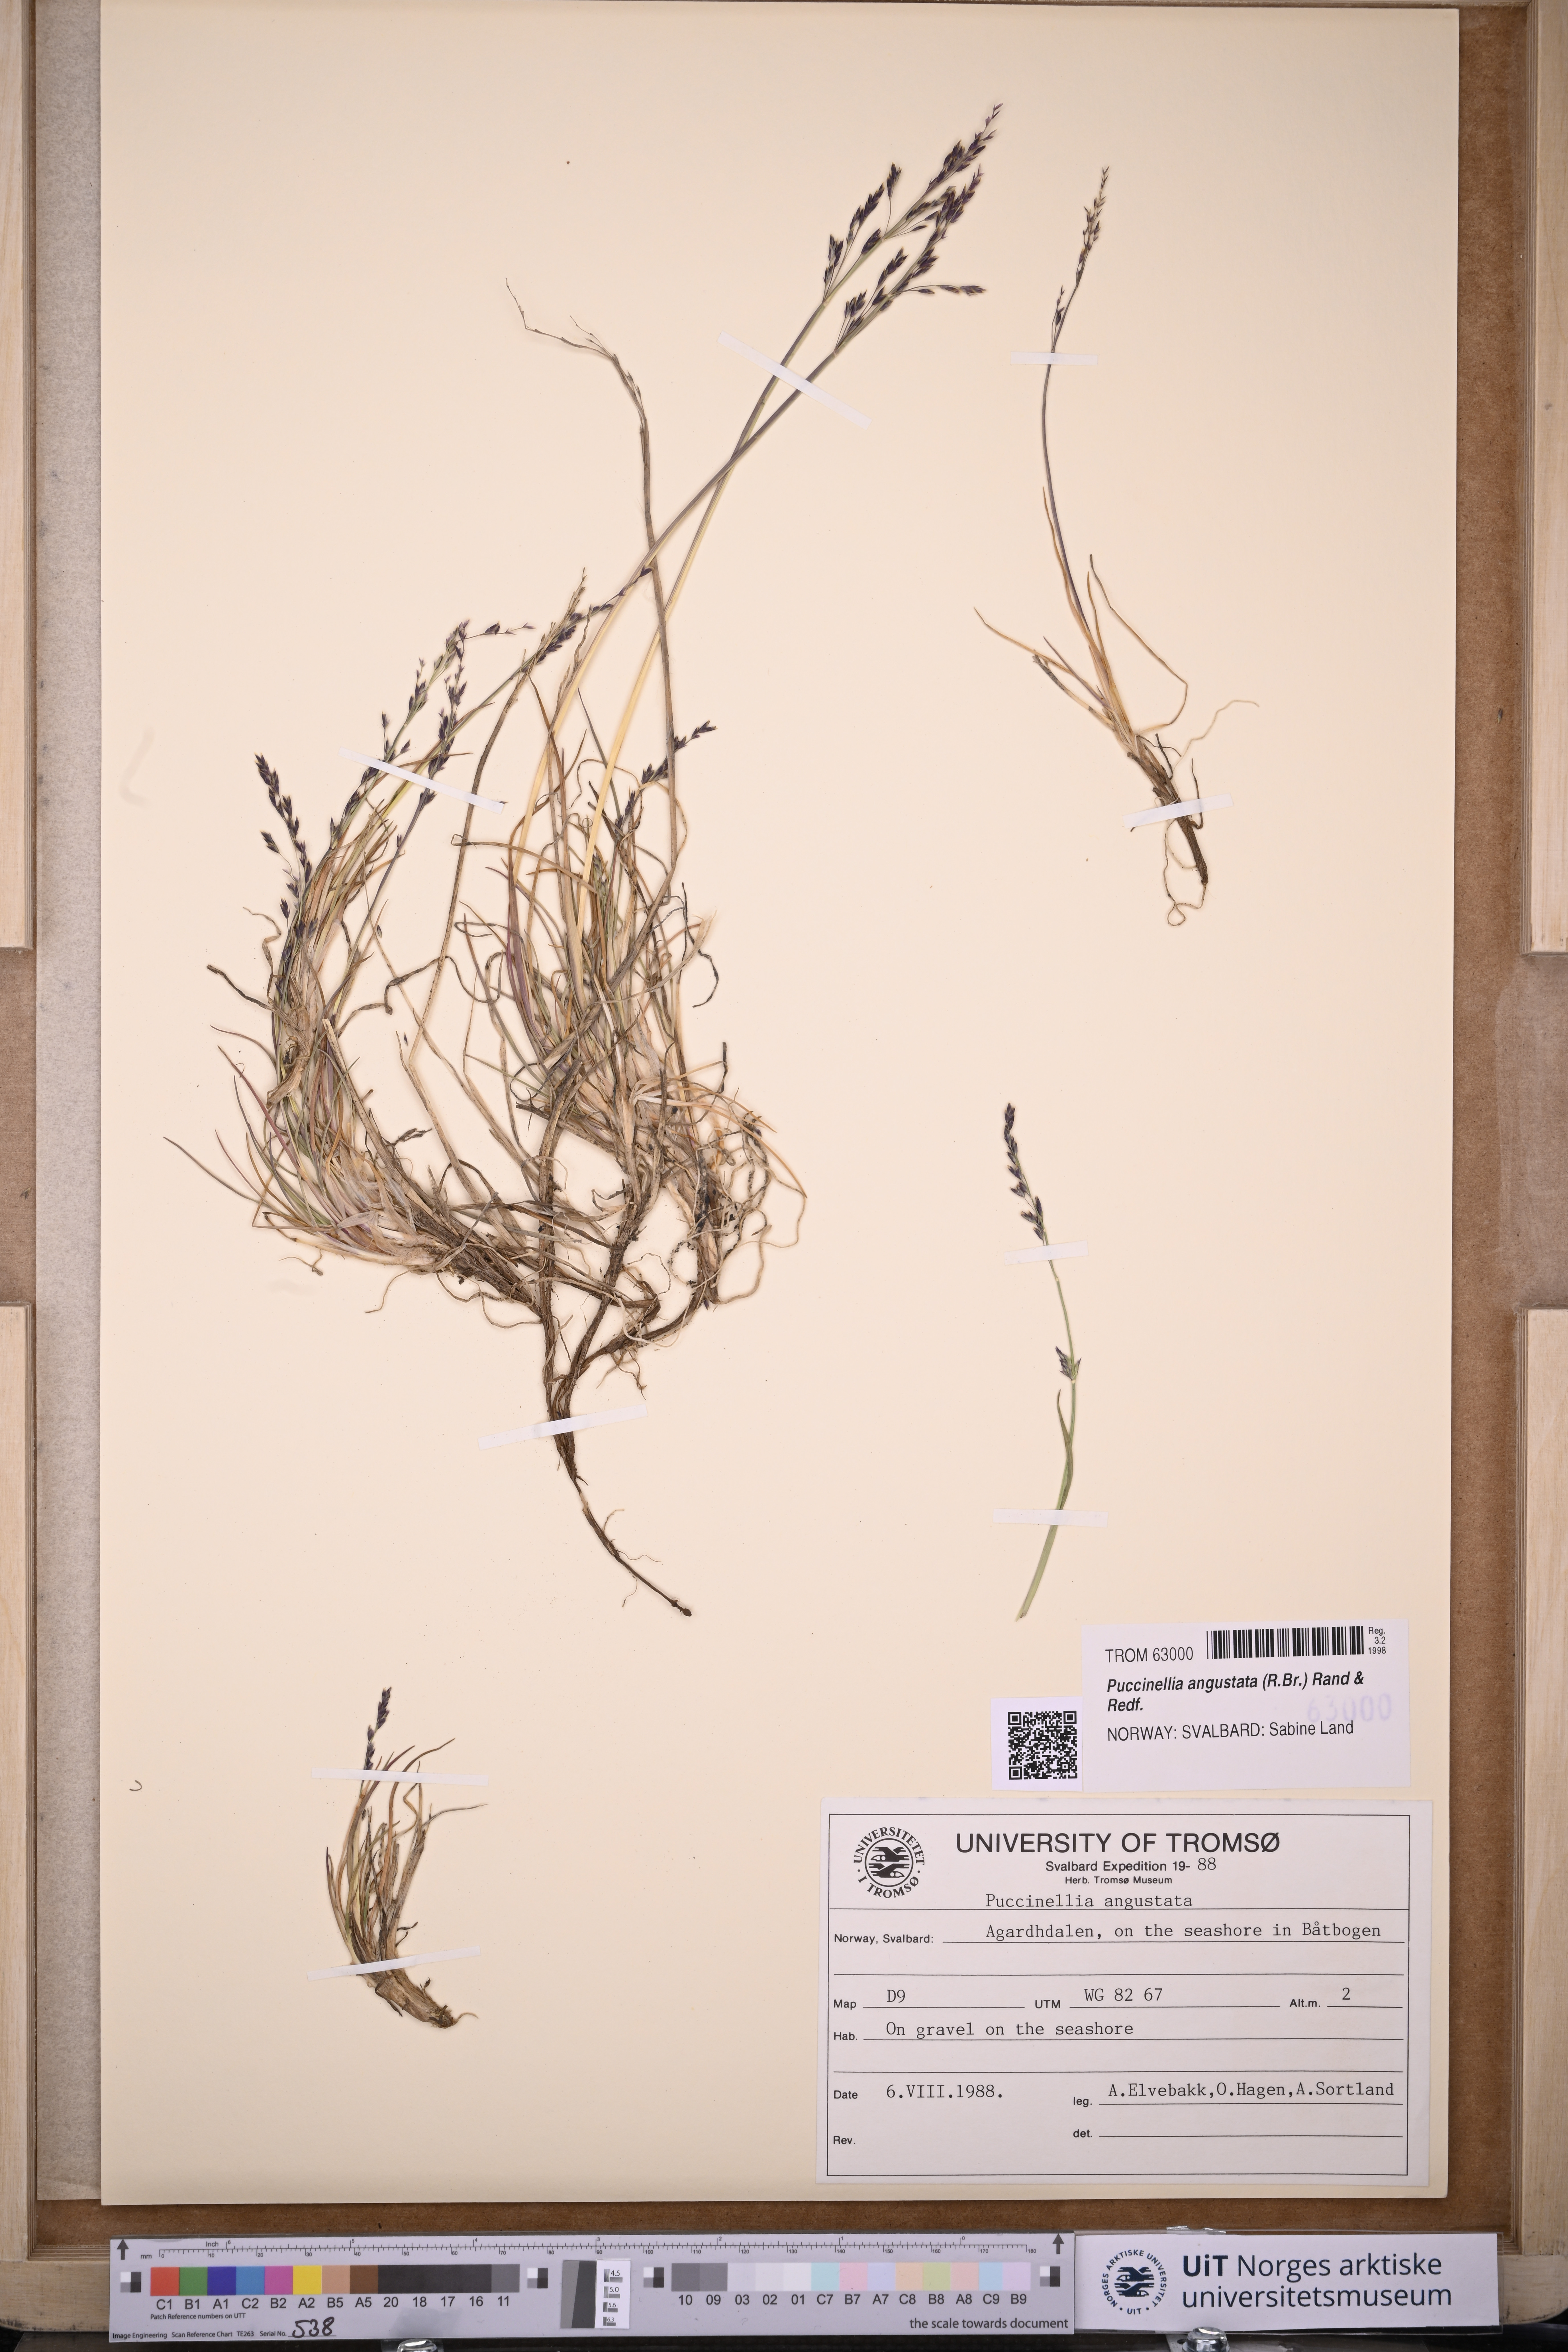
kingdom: Plantae
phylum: Tracheophyta
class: Liliopsida
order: Poales
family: Poaceae
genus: Puccinellia
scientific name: Puccinellia angustata
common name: Narrow alkaligrass
